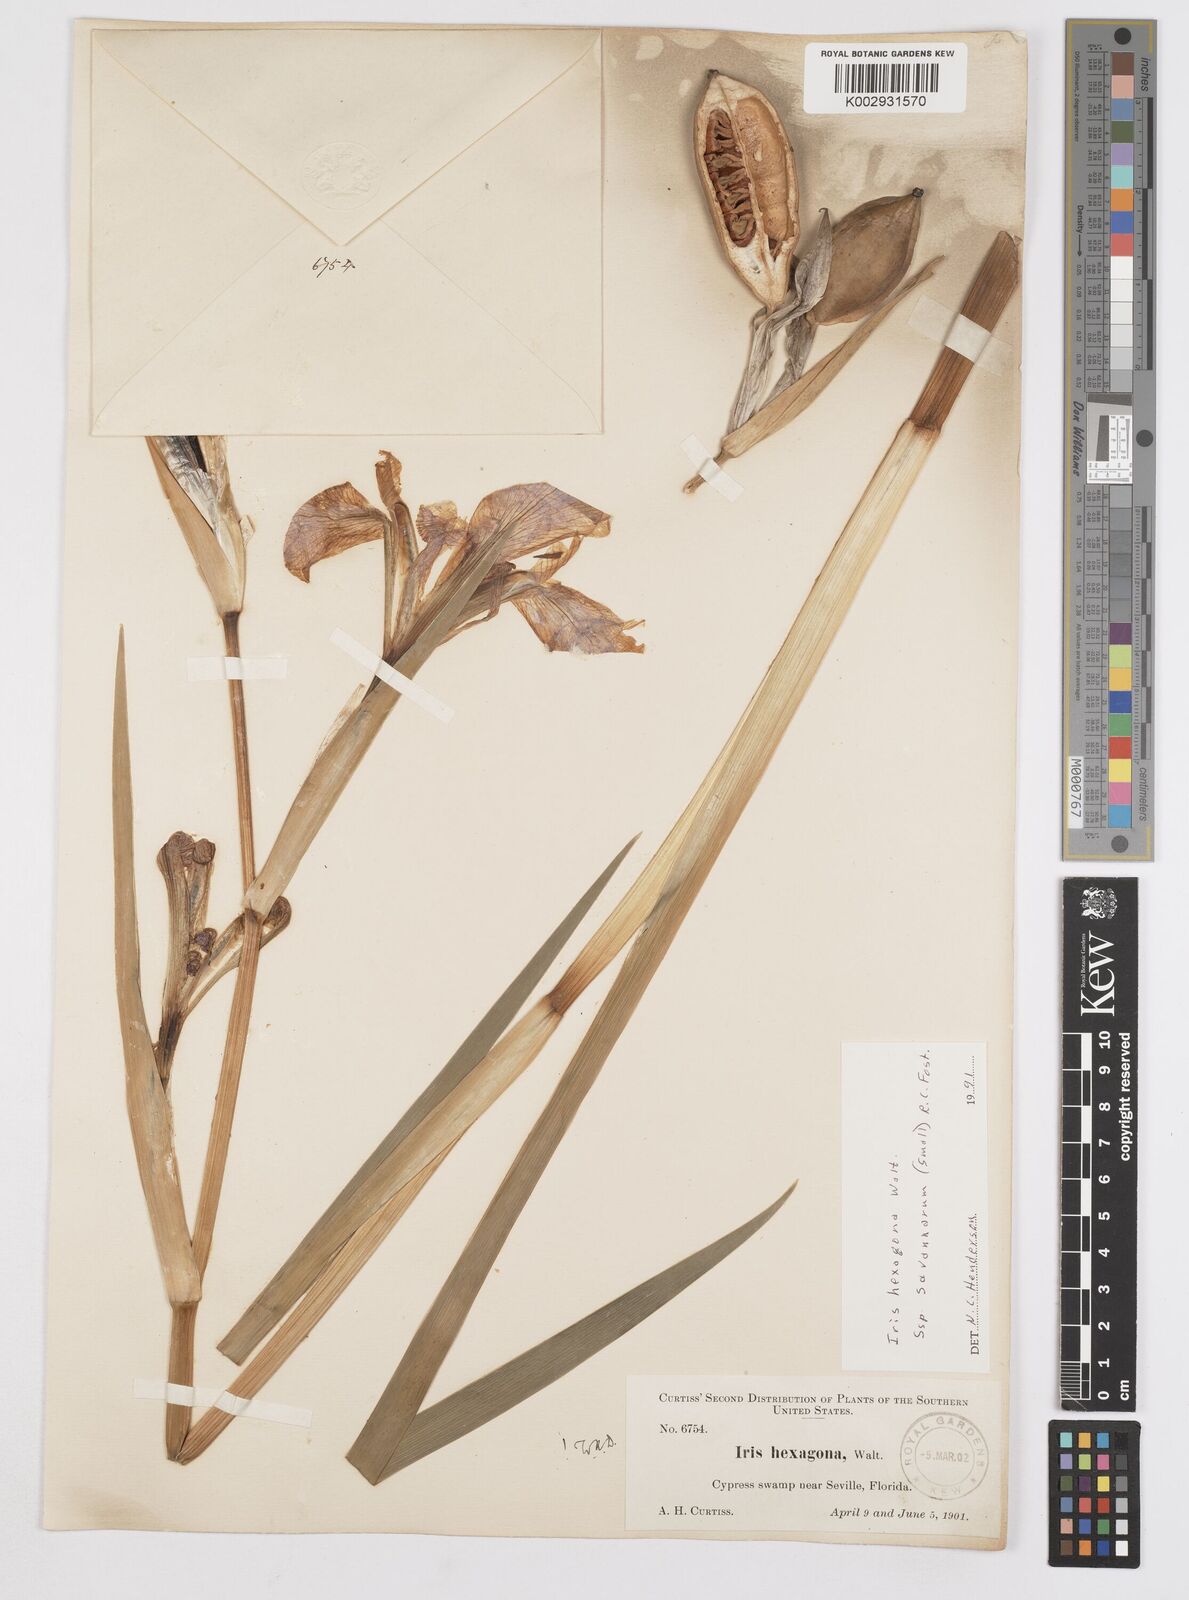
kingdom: Plantae
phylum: Tracheophyta
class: Liliopsida
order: Asparagales
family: Iridaceae
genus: Iris
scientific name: Iris hexagona
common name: Carolina iris
